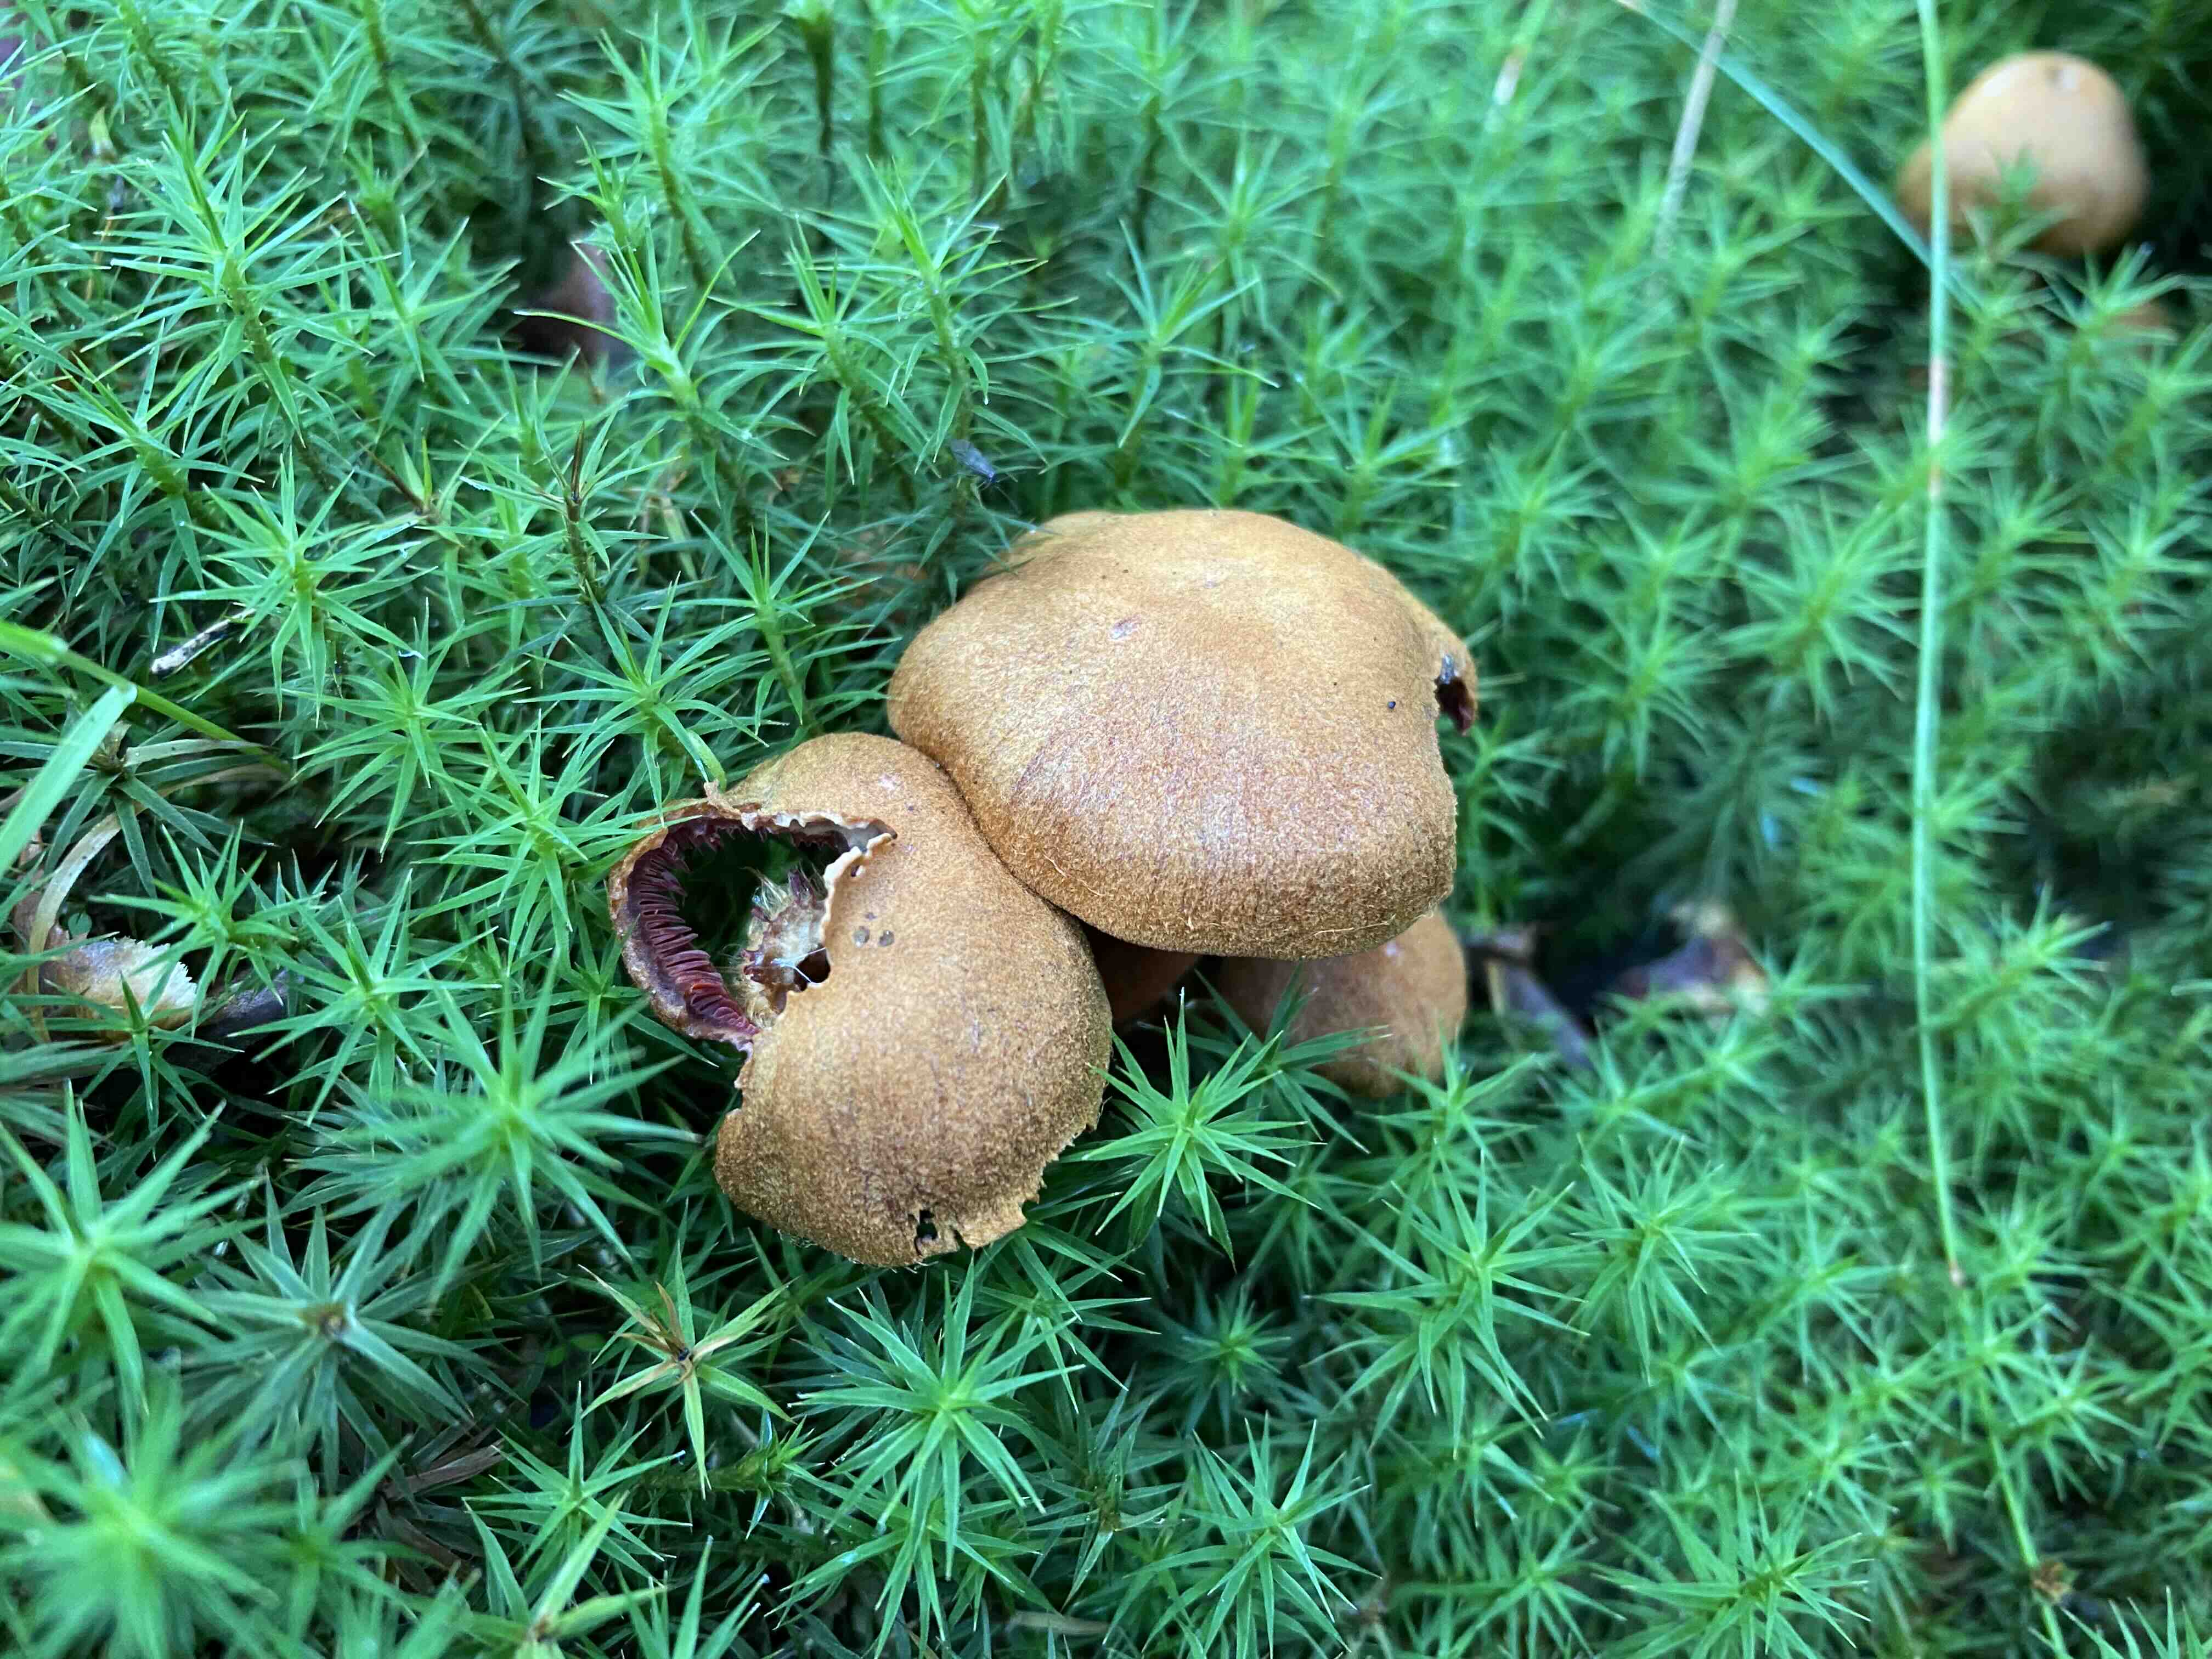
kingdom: Fungi
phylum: Basidiomycota
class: Agaricomycetes
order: Agaricales
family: Cortinariaceae
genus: Cortinarius
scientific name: Cortinarius
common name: cinnoberbladet slørhat
